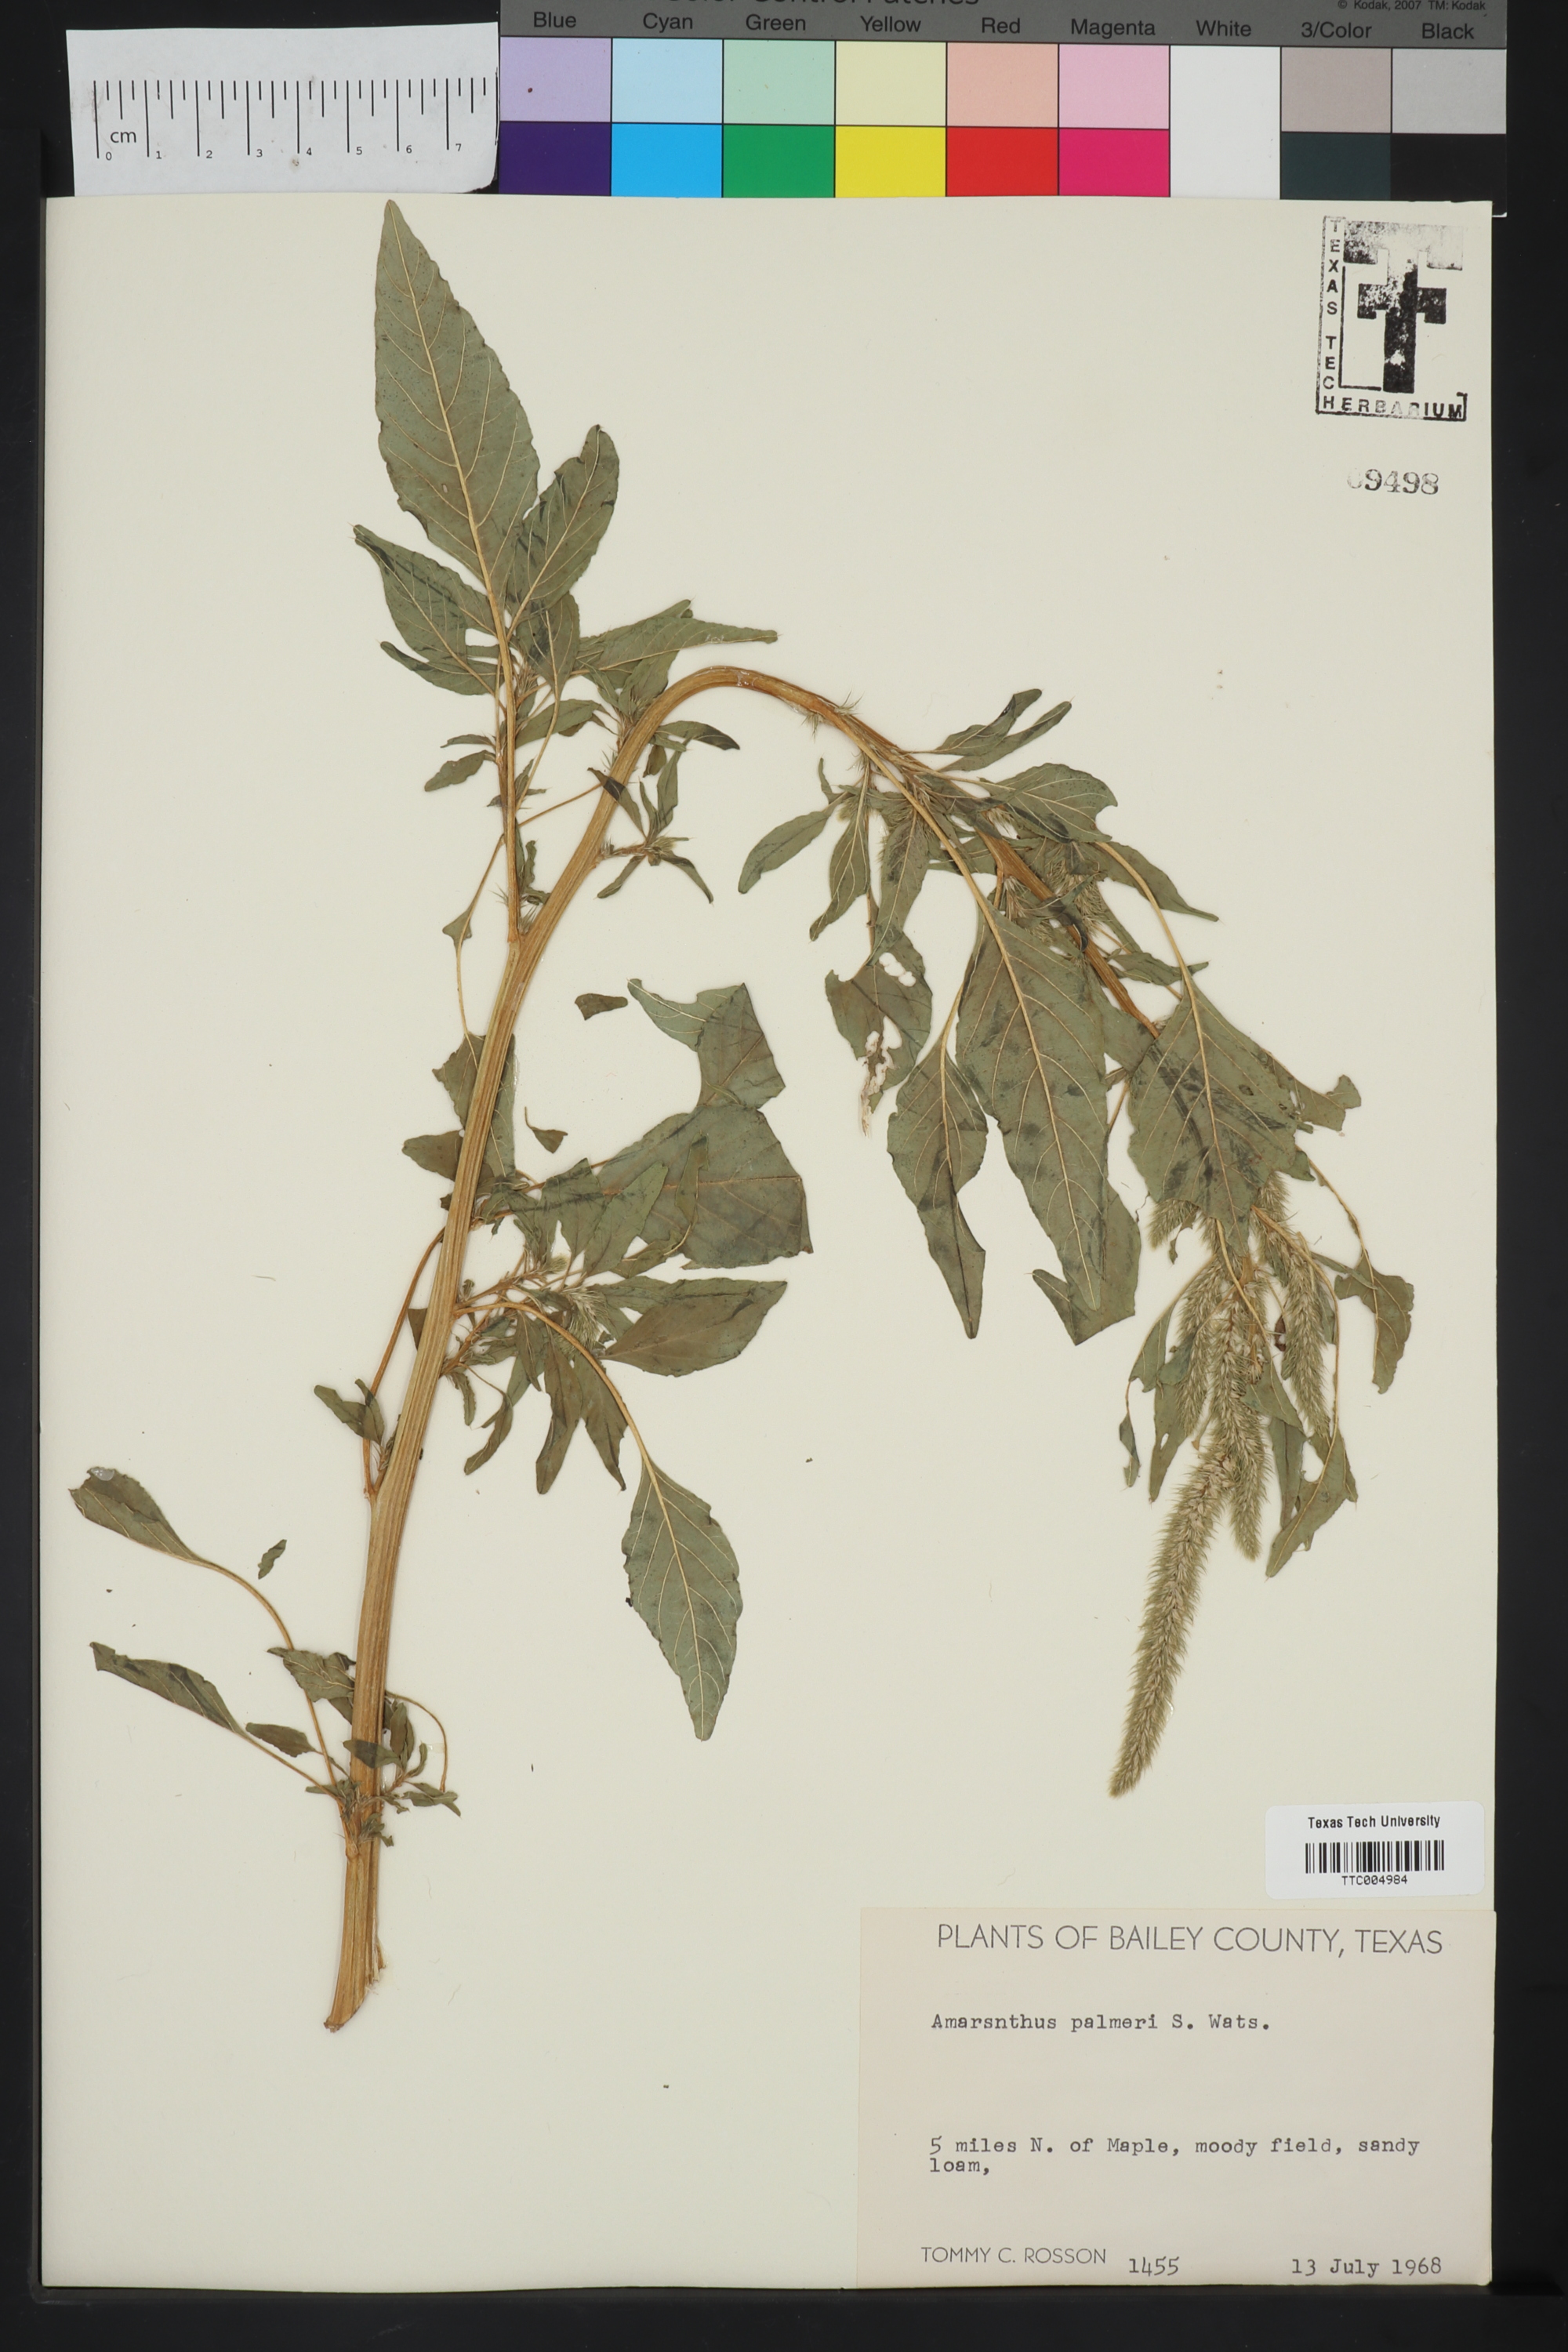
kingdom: Plantae
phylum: Tracheophyta
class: Magnoliopsida
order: Caryophyllales
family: Amaranthaceae
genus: Amaranthus
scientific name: Amaranthus palmeri
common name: Dioecious amaranth
